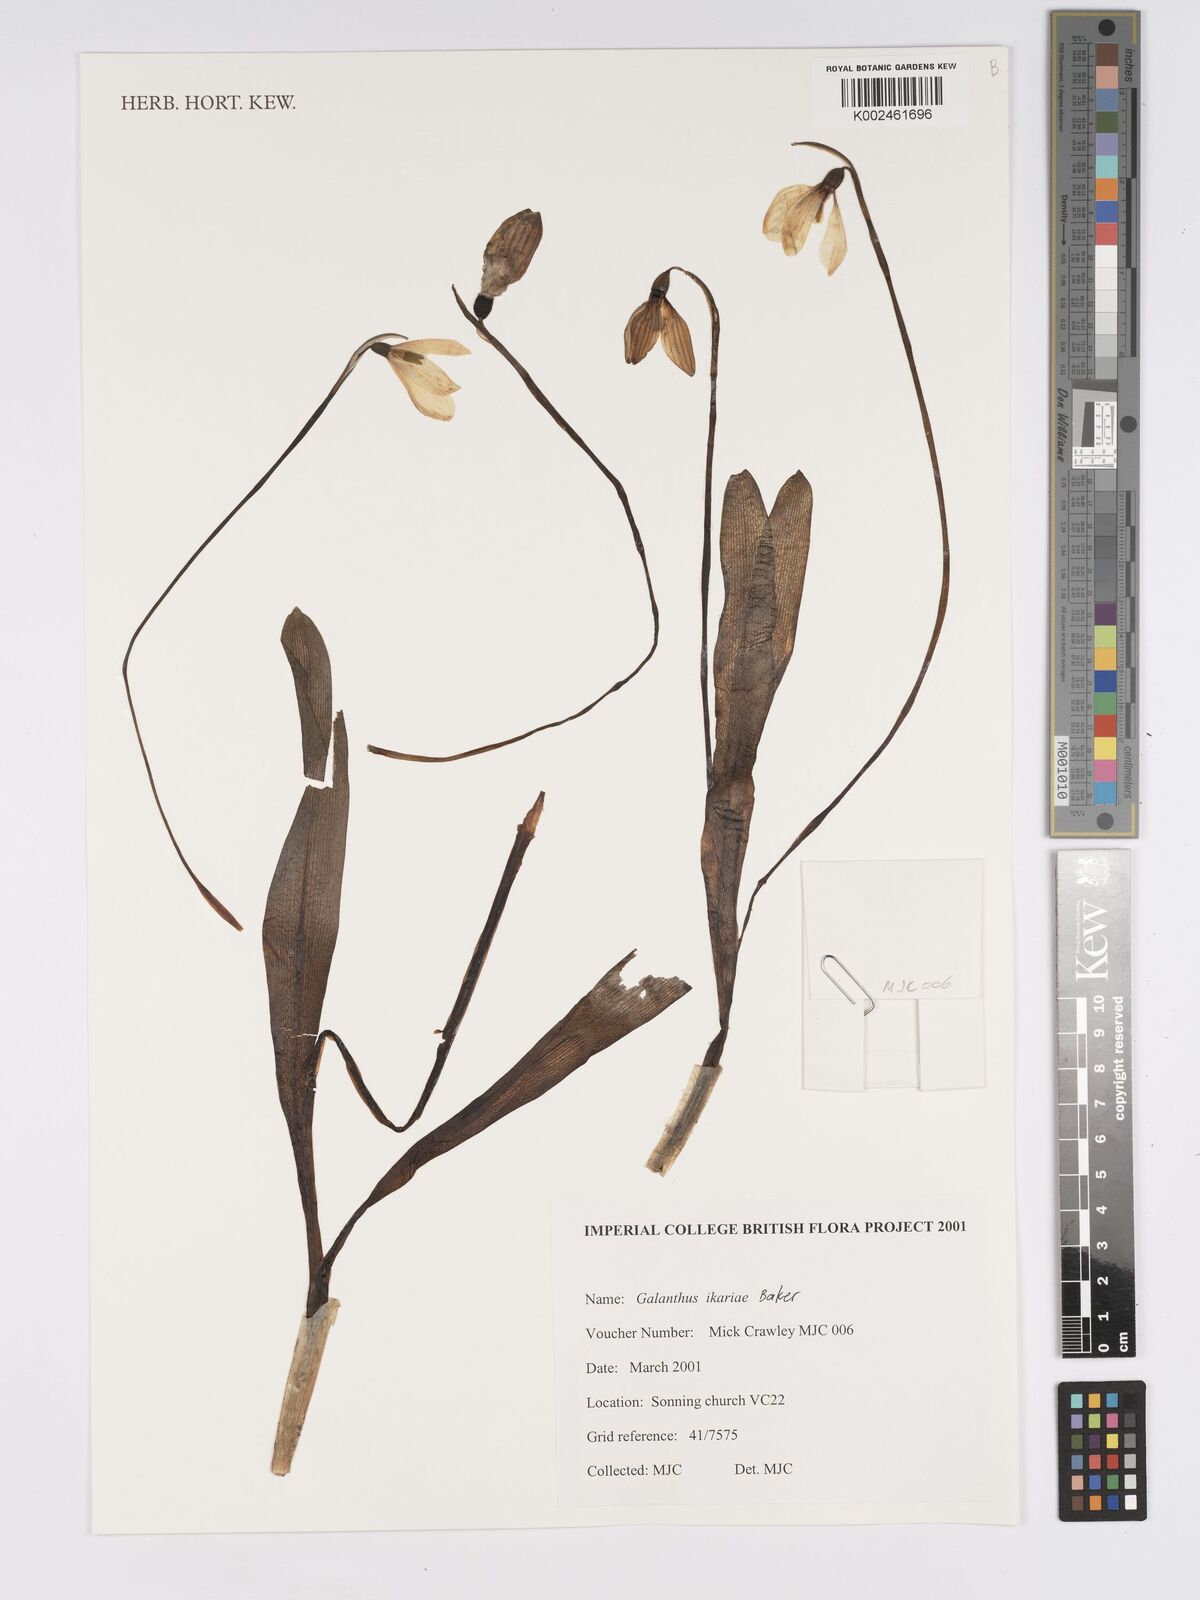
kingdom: Plantae
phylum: Tracheophyta
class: Liliopsida
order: Asparagales
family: Amaryllidaceae
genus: Galanthus
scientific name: Galanthus ikariae
